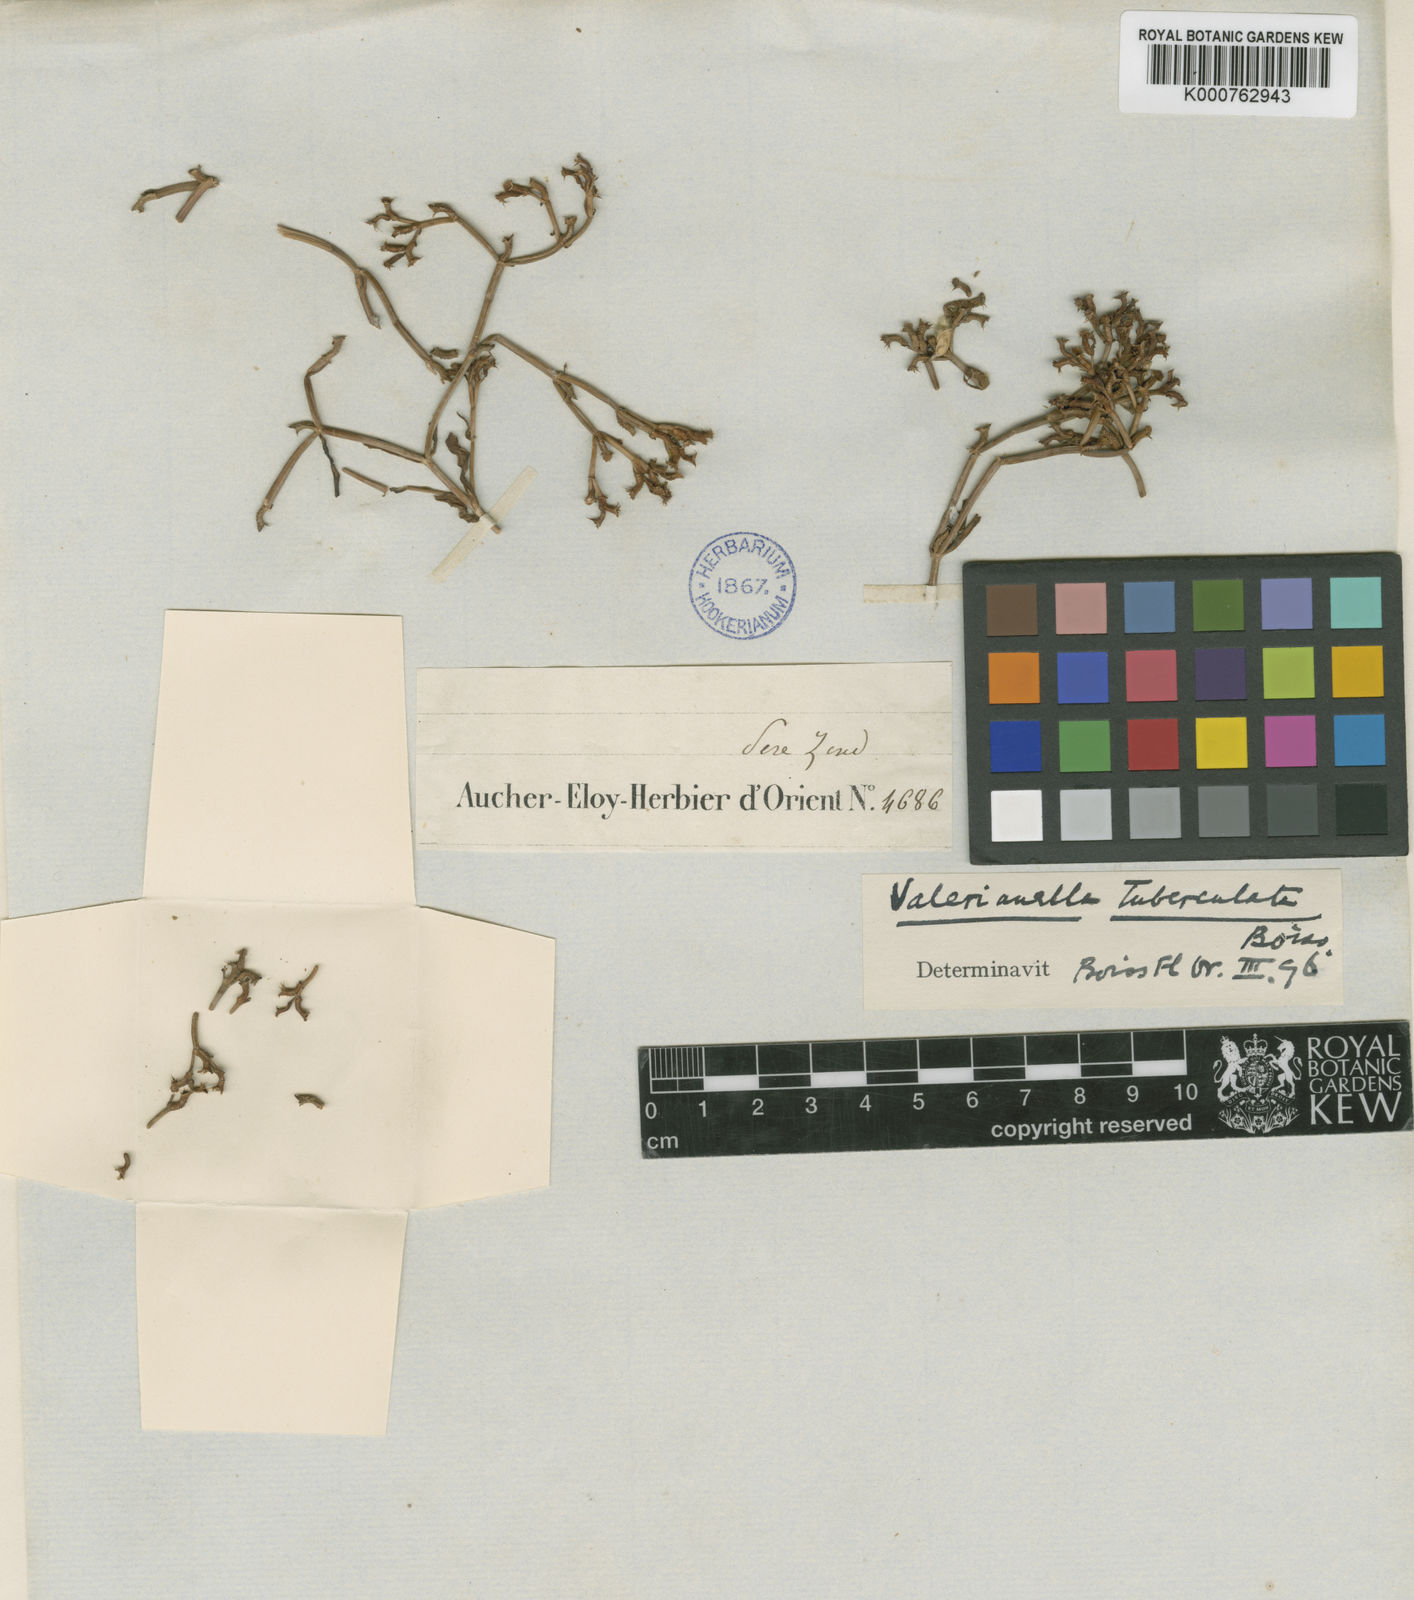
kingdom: Plantae
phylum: Tracheophyta
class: Magnoliopsida
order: Dipsacales
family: Caprifoliaceae
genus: Valerianella
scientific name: Valerianella tuberculata
